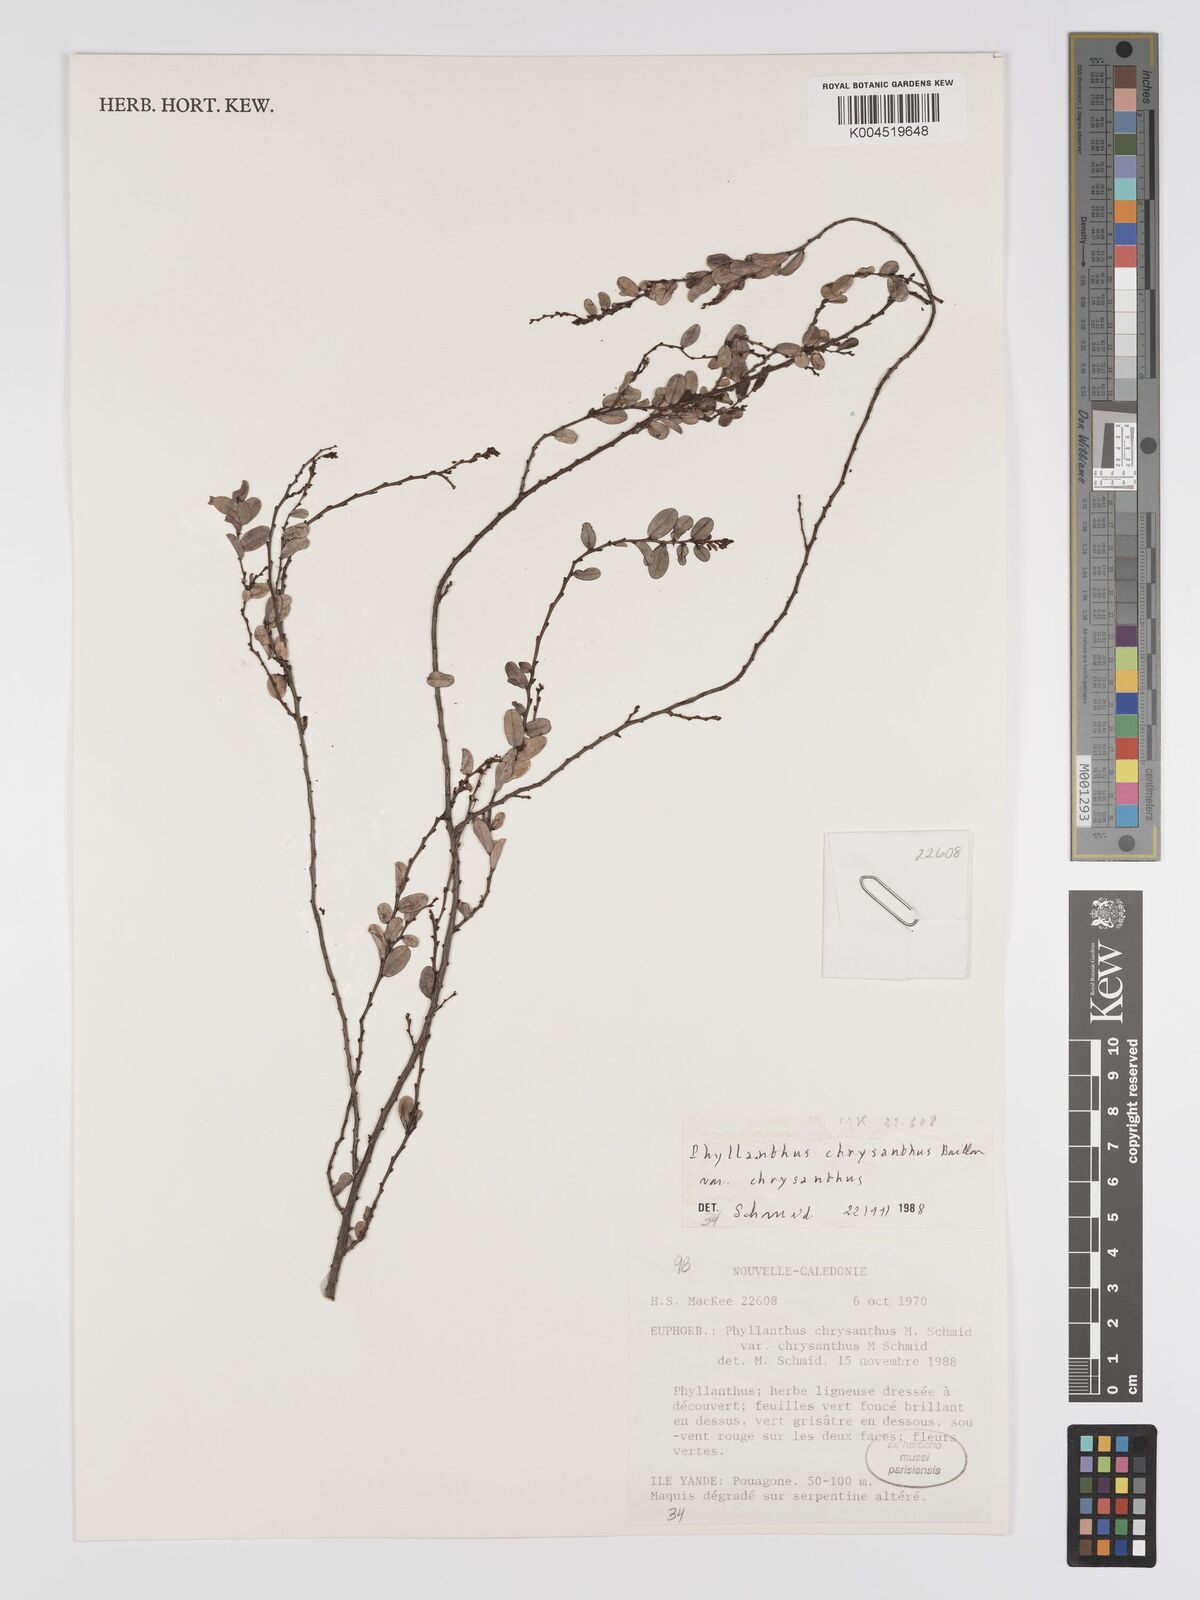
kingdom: Plantae
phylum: Tracheophyta
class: Magnoliopsida
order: Malpighiales
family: Phyllanthaceae
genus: Phyllanthus
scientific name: Phyllanthus chrysanthus
